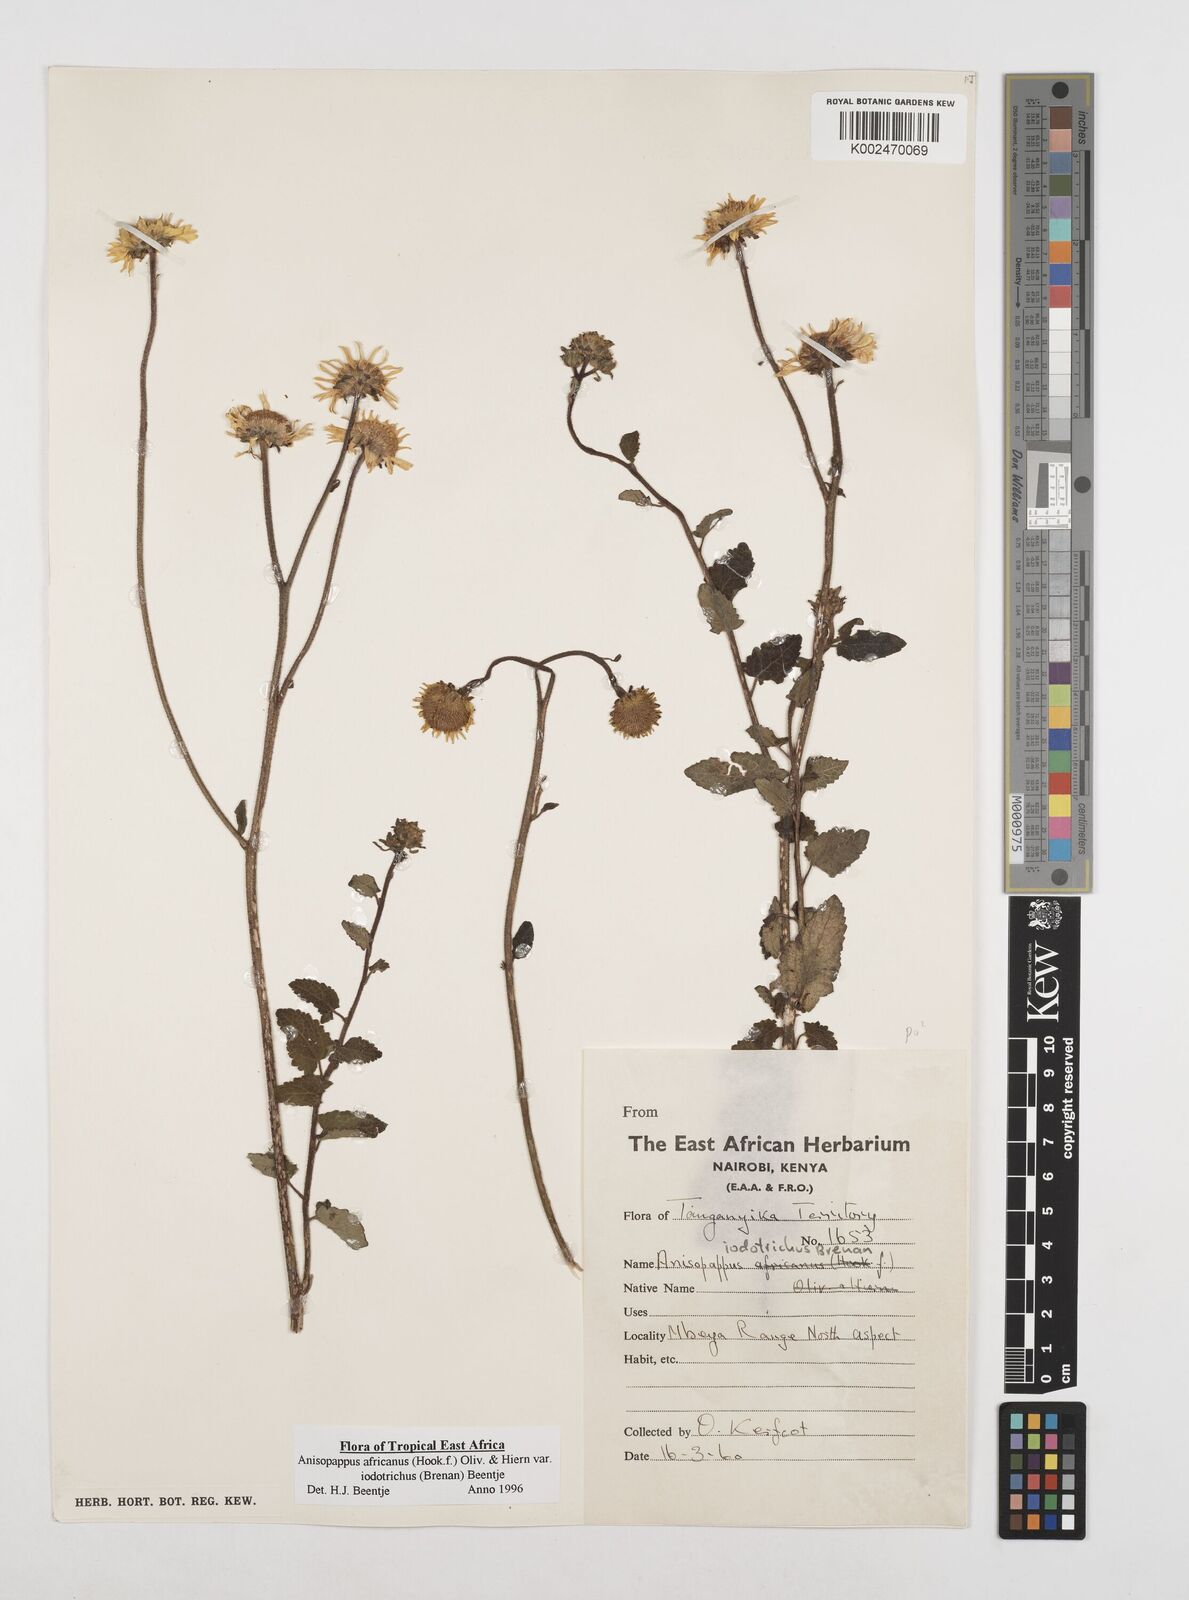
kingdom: Plantae
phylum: Tracheophyta
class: Magnoliopsida
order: Asterales
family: Asteraceae
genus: Anisopappus
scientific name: Anisopappus africanus
